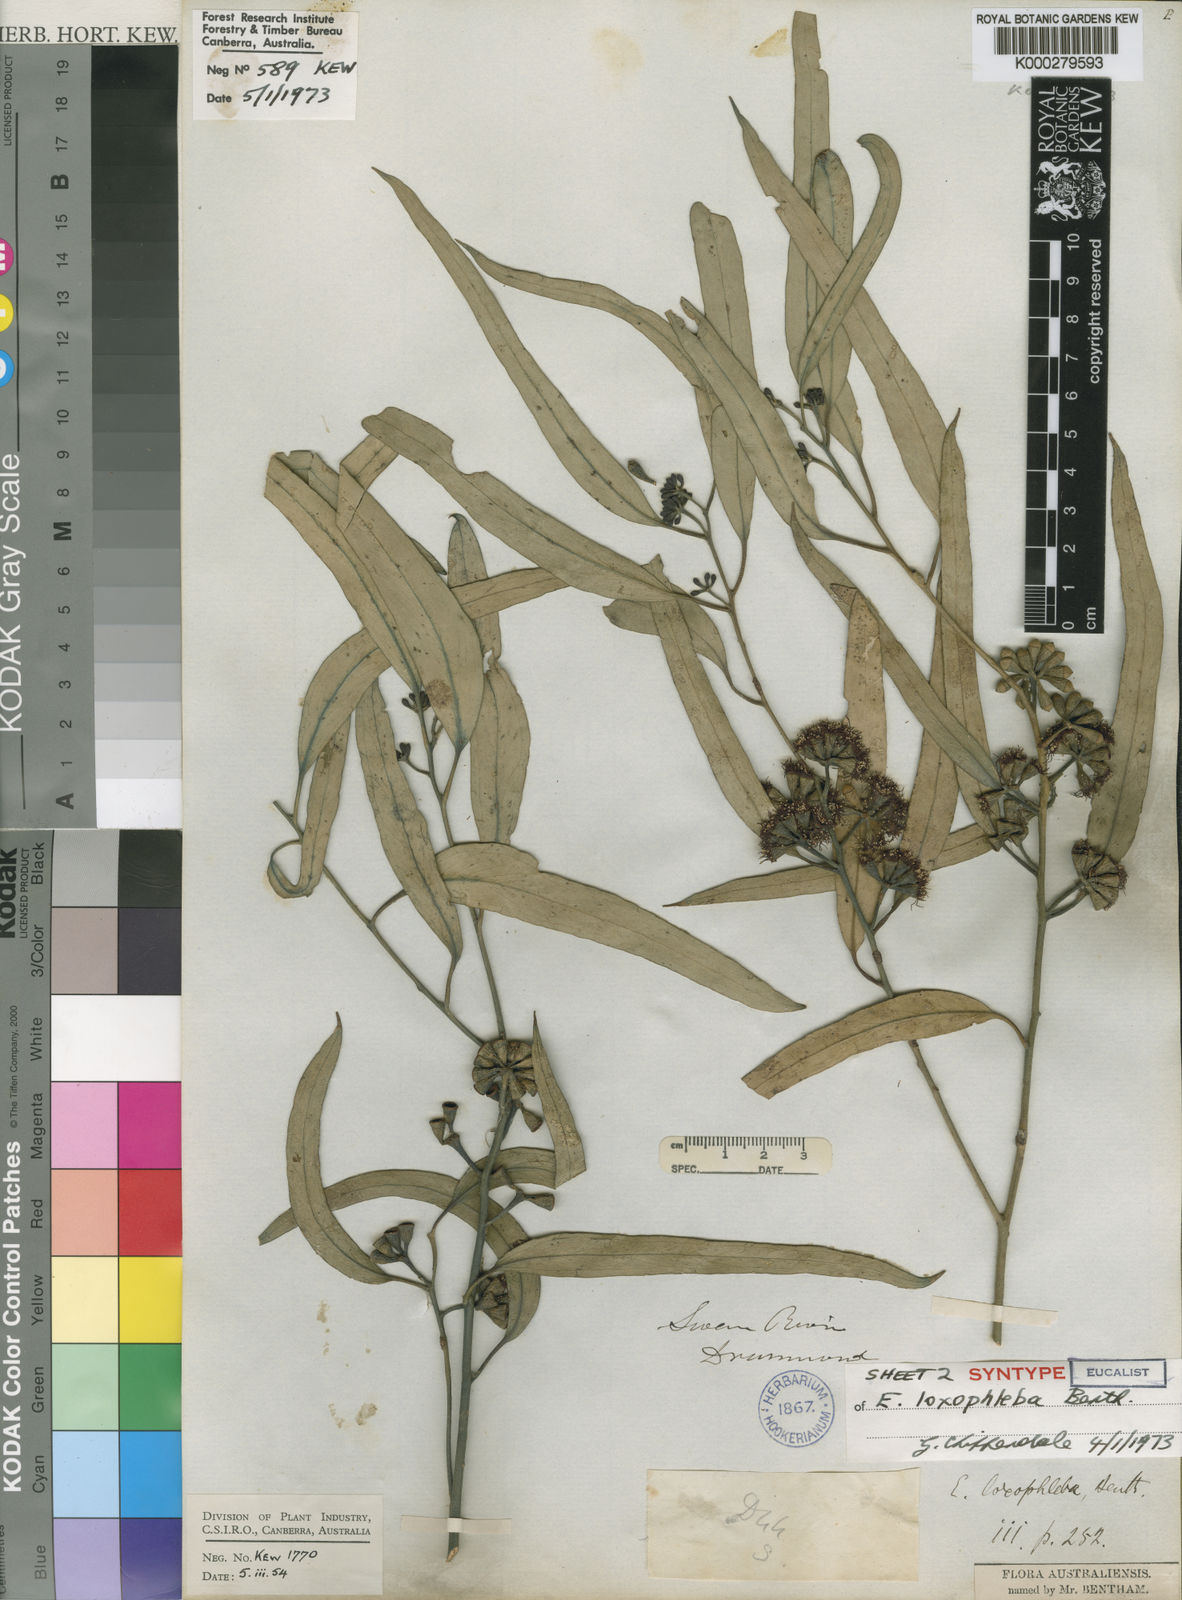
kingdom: Plantae
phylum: Tracheophyta
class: Magnoliopsida
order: Myrtales
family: Myrtaceae
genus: Eucalyptus
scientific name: Eucalyptus loxophleba
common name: York gum
